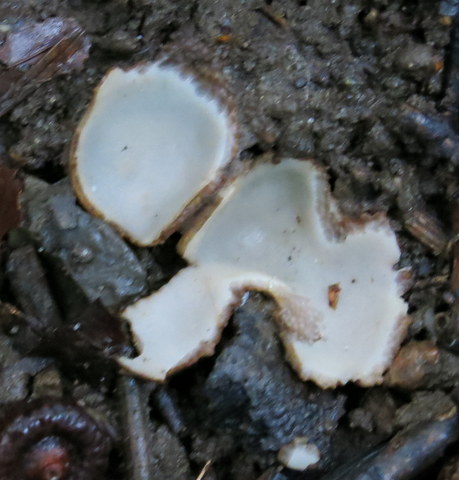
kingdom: Fungi
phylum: Ascomycota
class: Pezizomycetes
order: Pezizales
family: Pyronemataceae
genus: Humaria
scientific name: Humaria hemisphaerica
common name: halvkugleformet børstebæger
